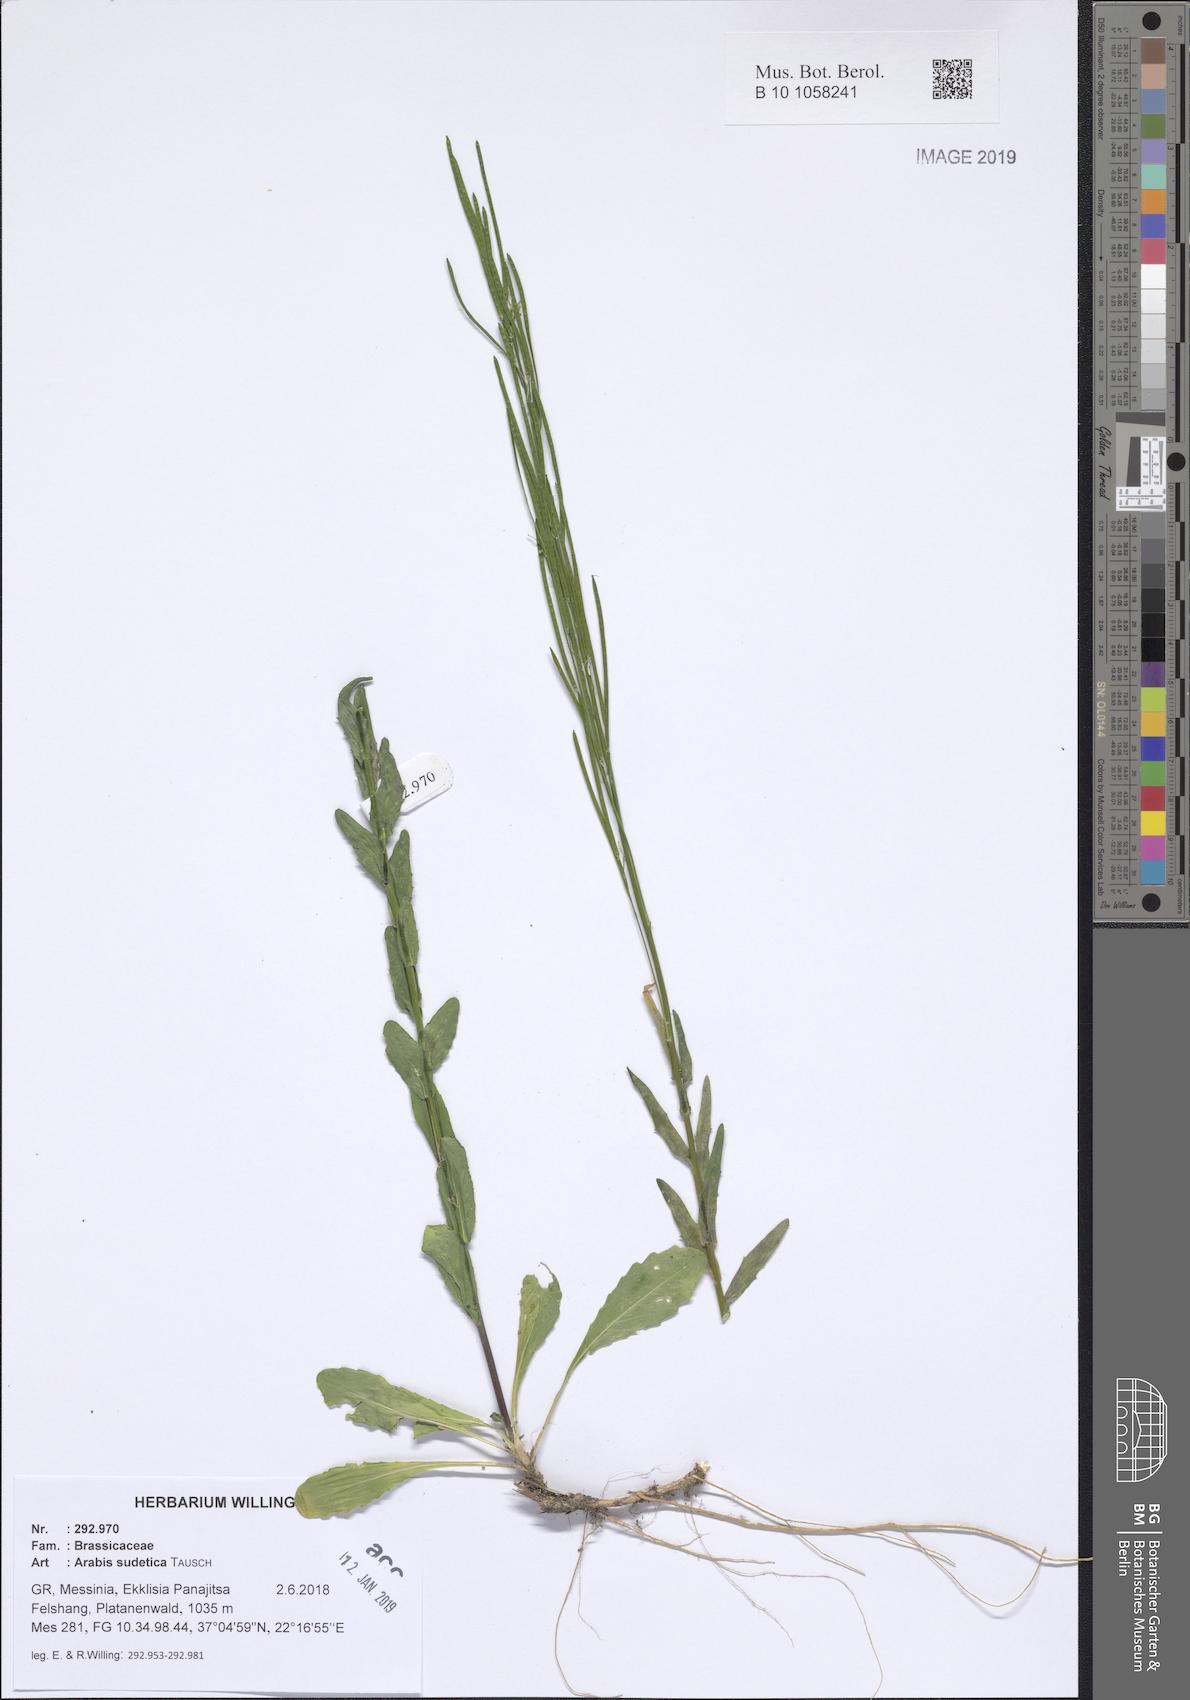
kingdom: Plantae
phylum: Tracheophyta
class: Magnoliopsida
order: Brassicales
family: Brassicaceae
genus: Arabis
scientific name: Arabis sudetica
